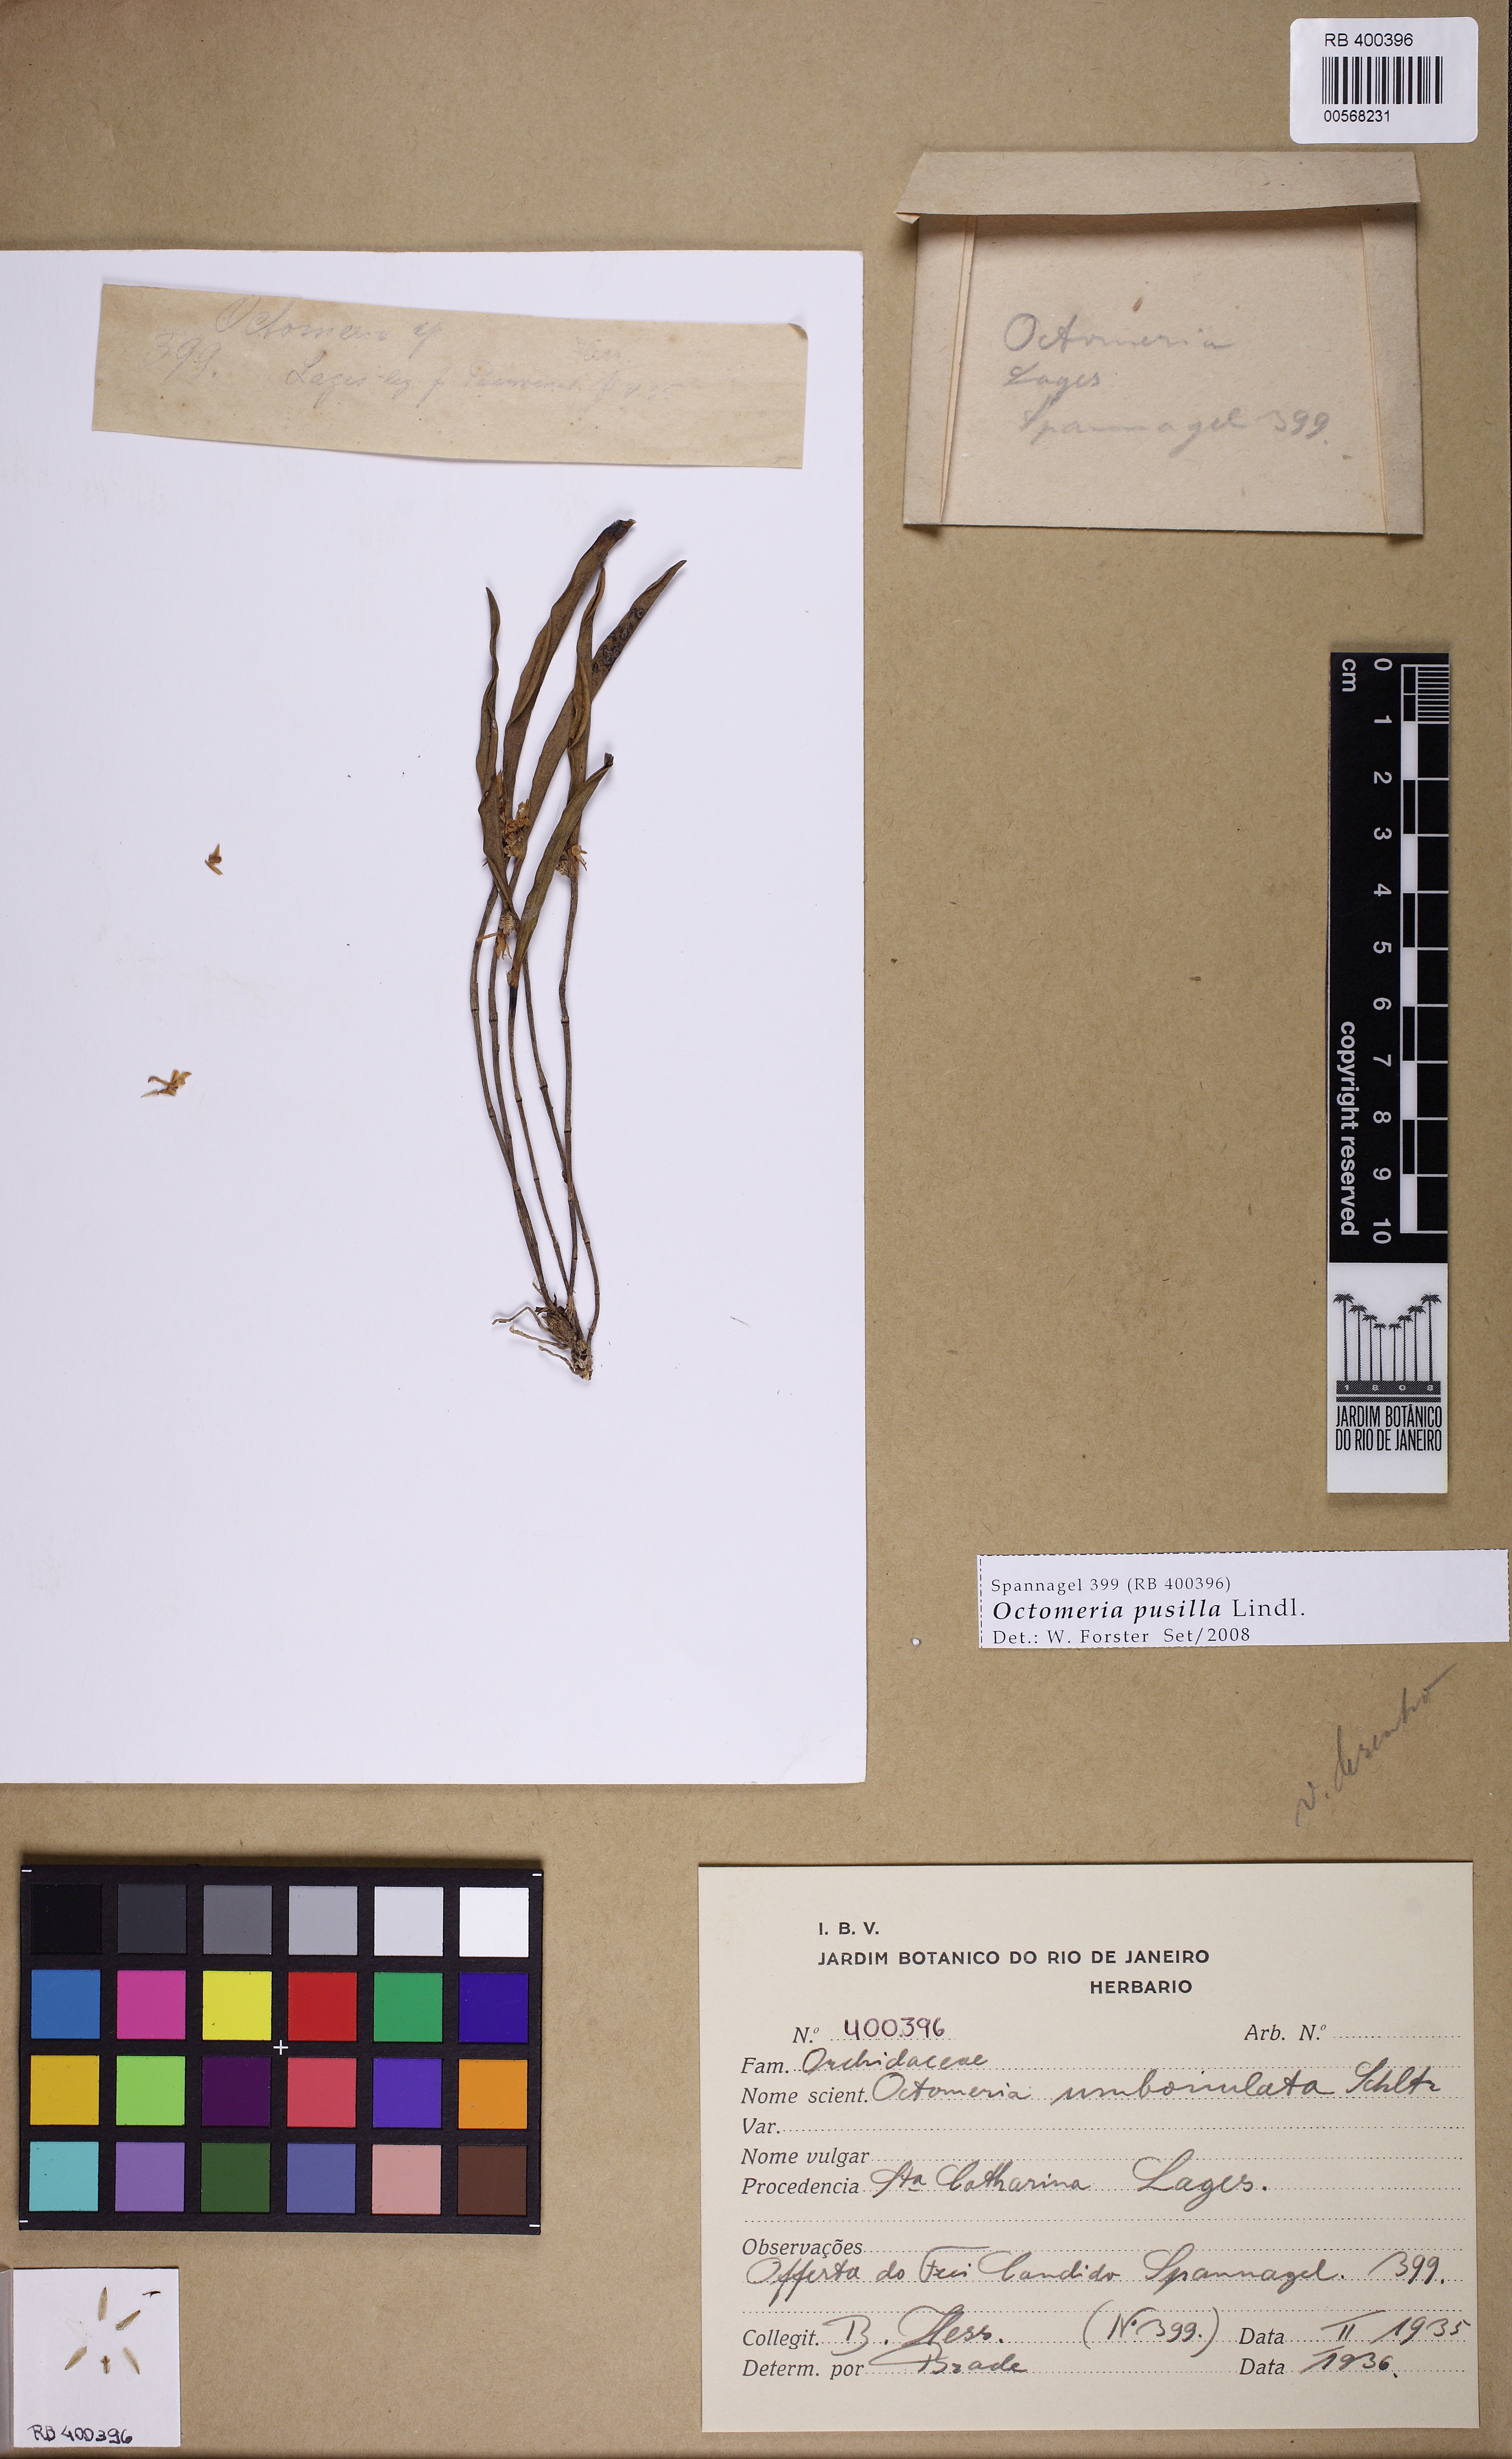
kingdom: Plantae
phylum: Tracheophyta
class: Liliopsida
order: Asparagales
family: Orchidaceae
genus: Octomeria
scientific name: Octomeria pusilla
